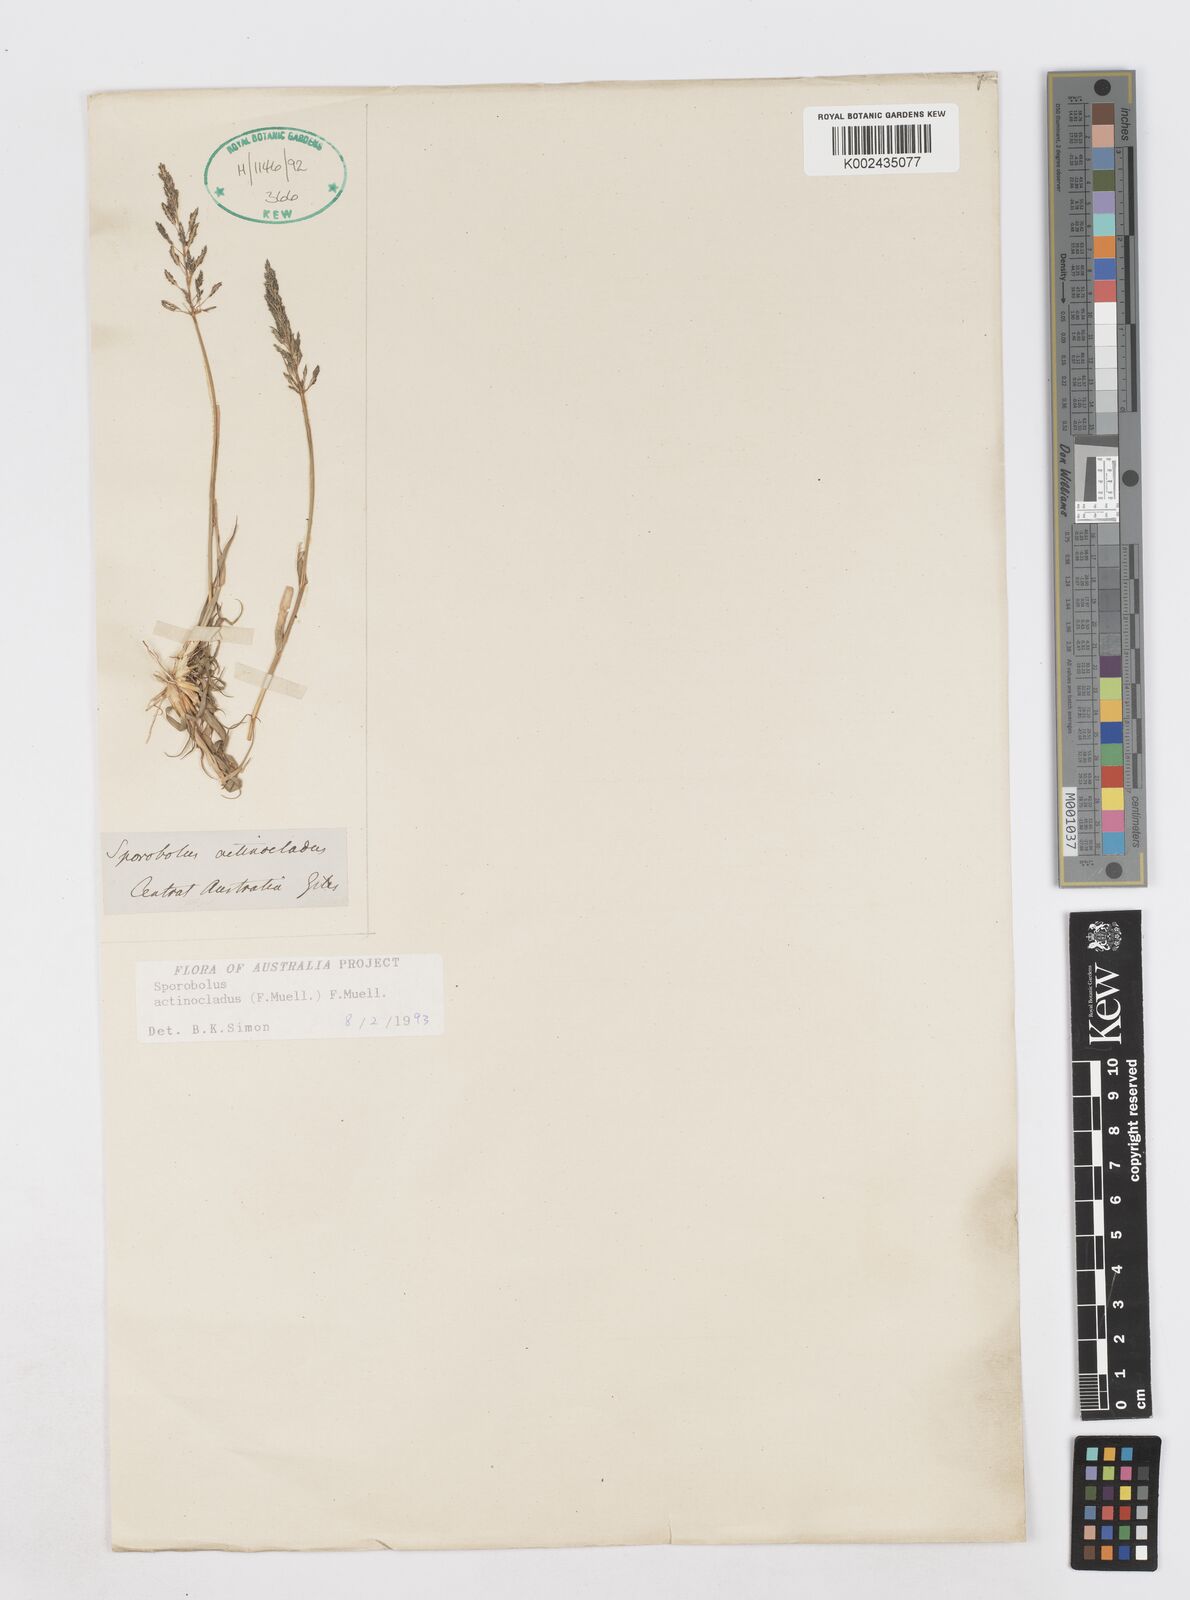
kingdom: Plantae
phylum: Tracheophyta
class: Liliopsida
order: Poales
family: Poaceae
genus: Sporobolus
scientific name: Sporobolus actinocladus
